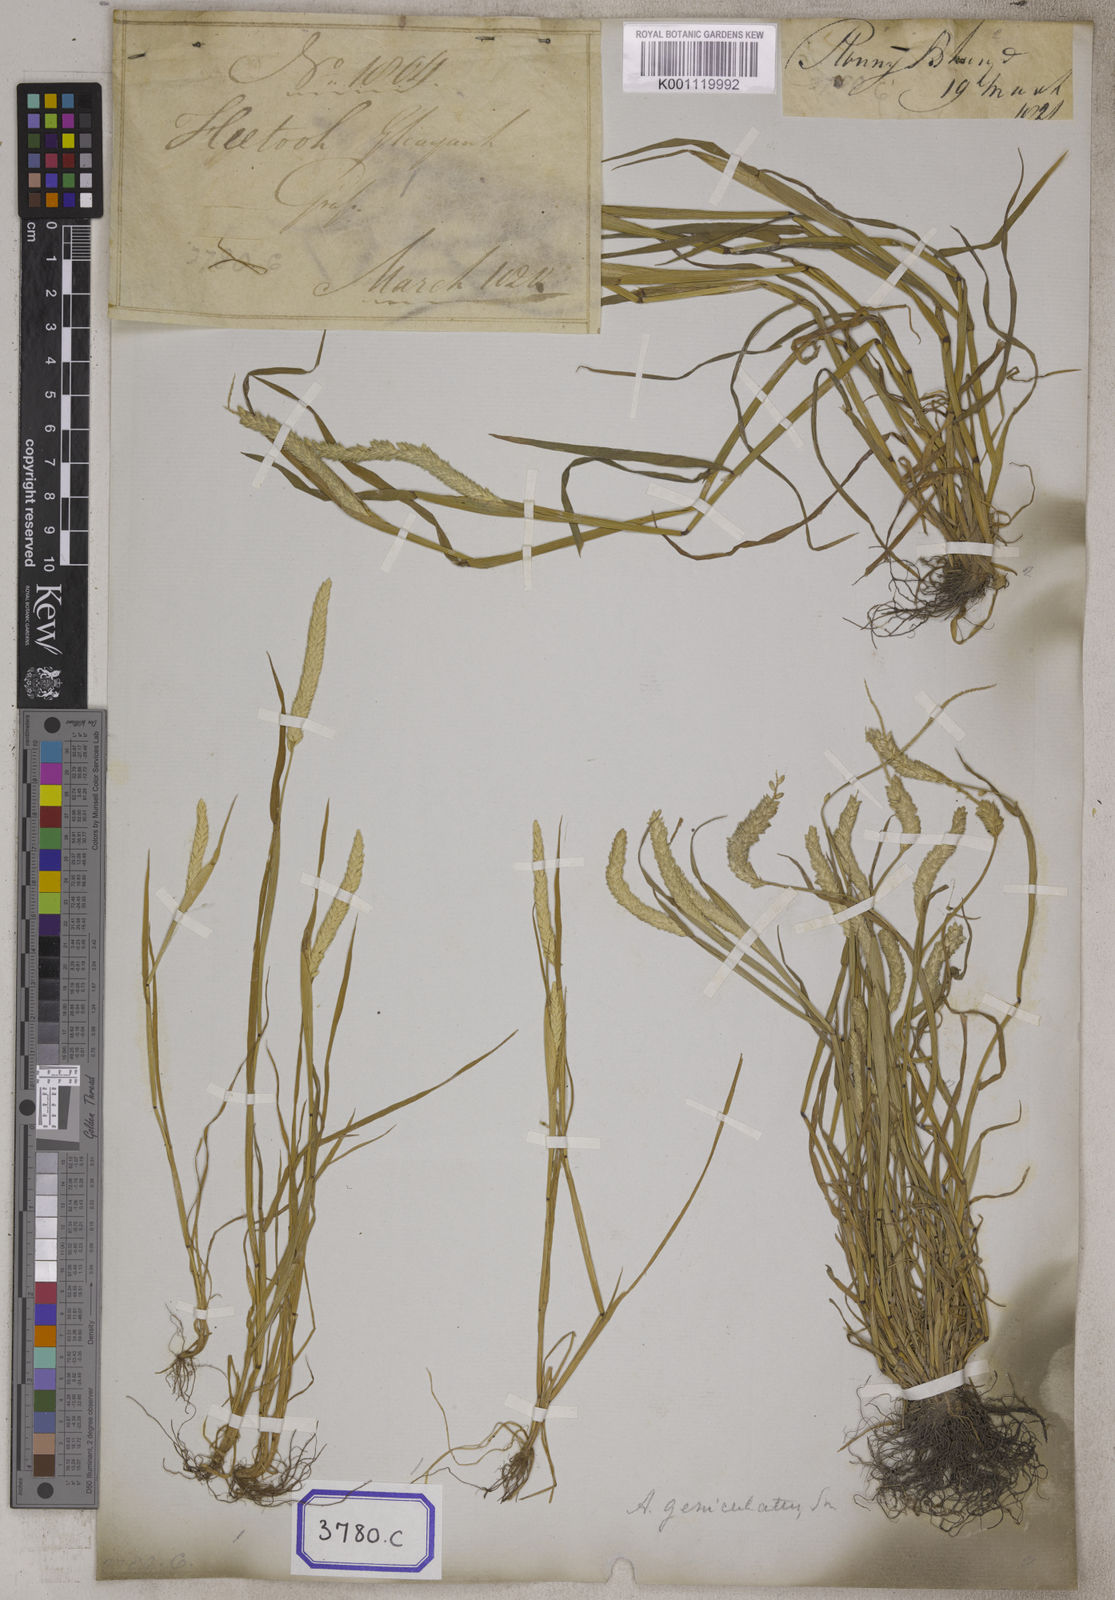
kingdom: Plantae
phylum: Tracheophyta
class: Liliopsida
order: Poales
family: Poaceae
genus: Alopecurus
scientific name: Alopecurus
